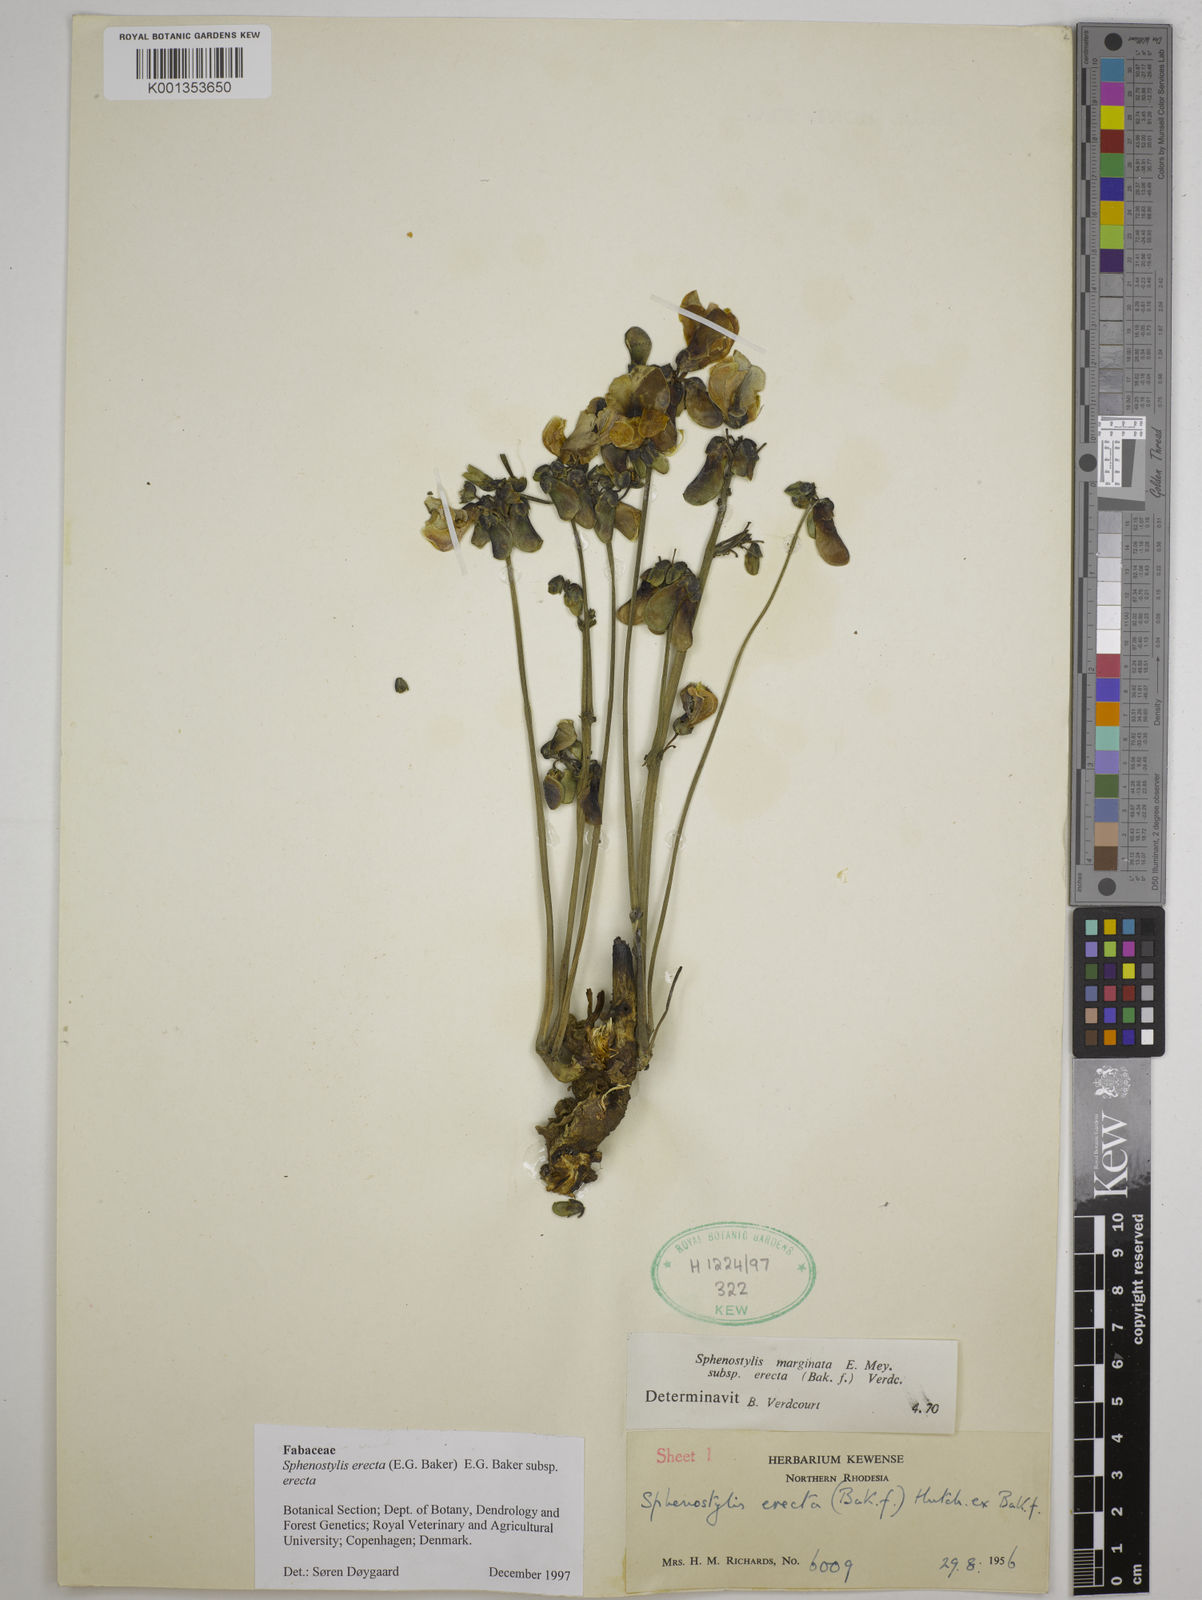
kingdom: Plantae
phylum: Tracheophyta
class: Magnoliopsida
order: Fabales
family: Fabaceae
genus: Sphenostylis
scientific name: Sphenostylis erecta
